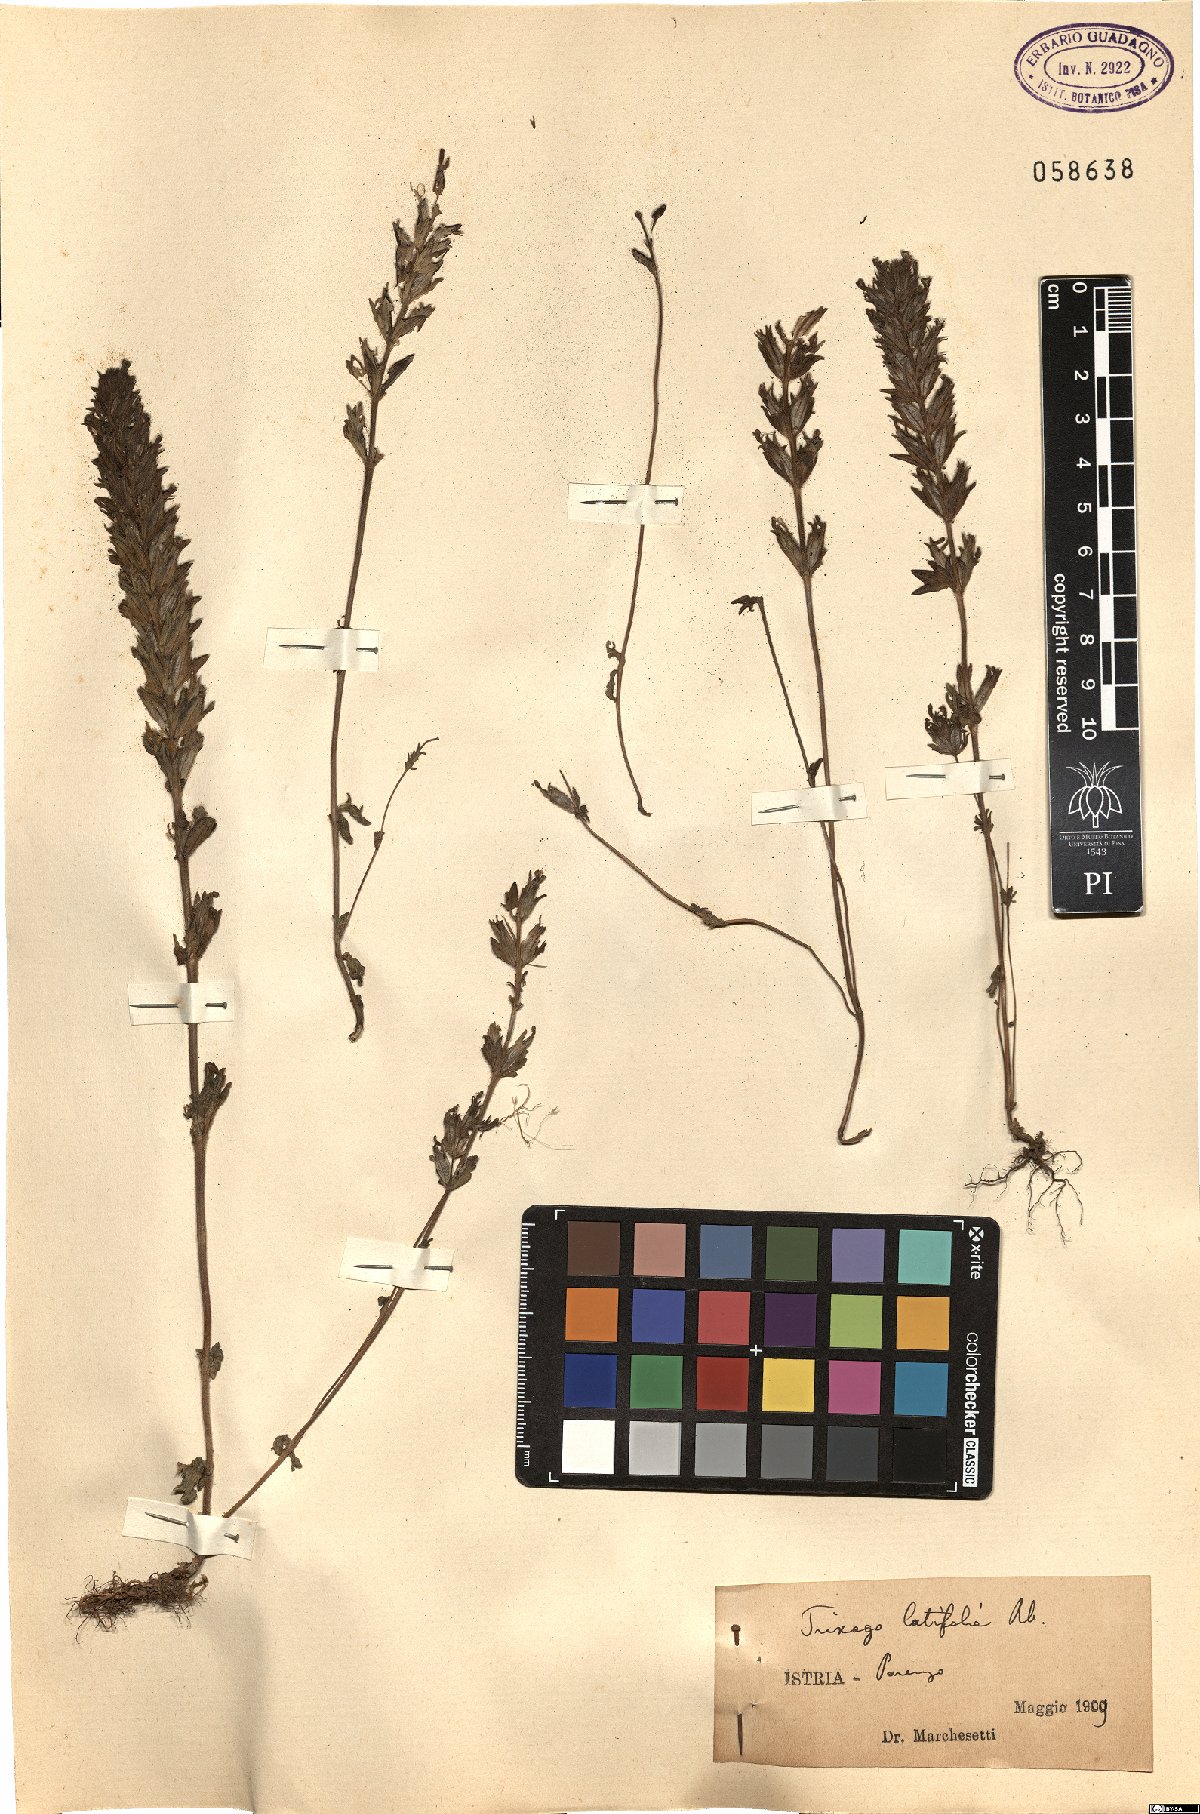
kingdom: Plantae
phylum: Tracheophyta
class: Magnoliopsida
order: Lamiales
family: Orobanchaceae
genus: Parentucellia
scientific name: Parentucellia latifolia
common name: Broadleaf glandweed
